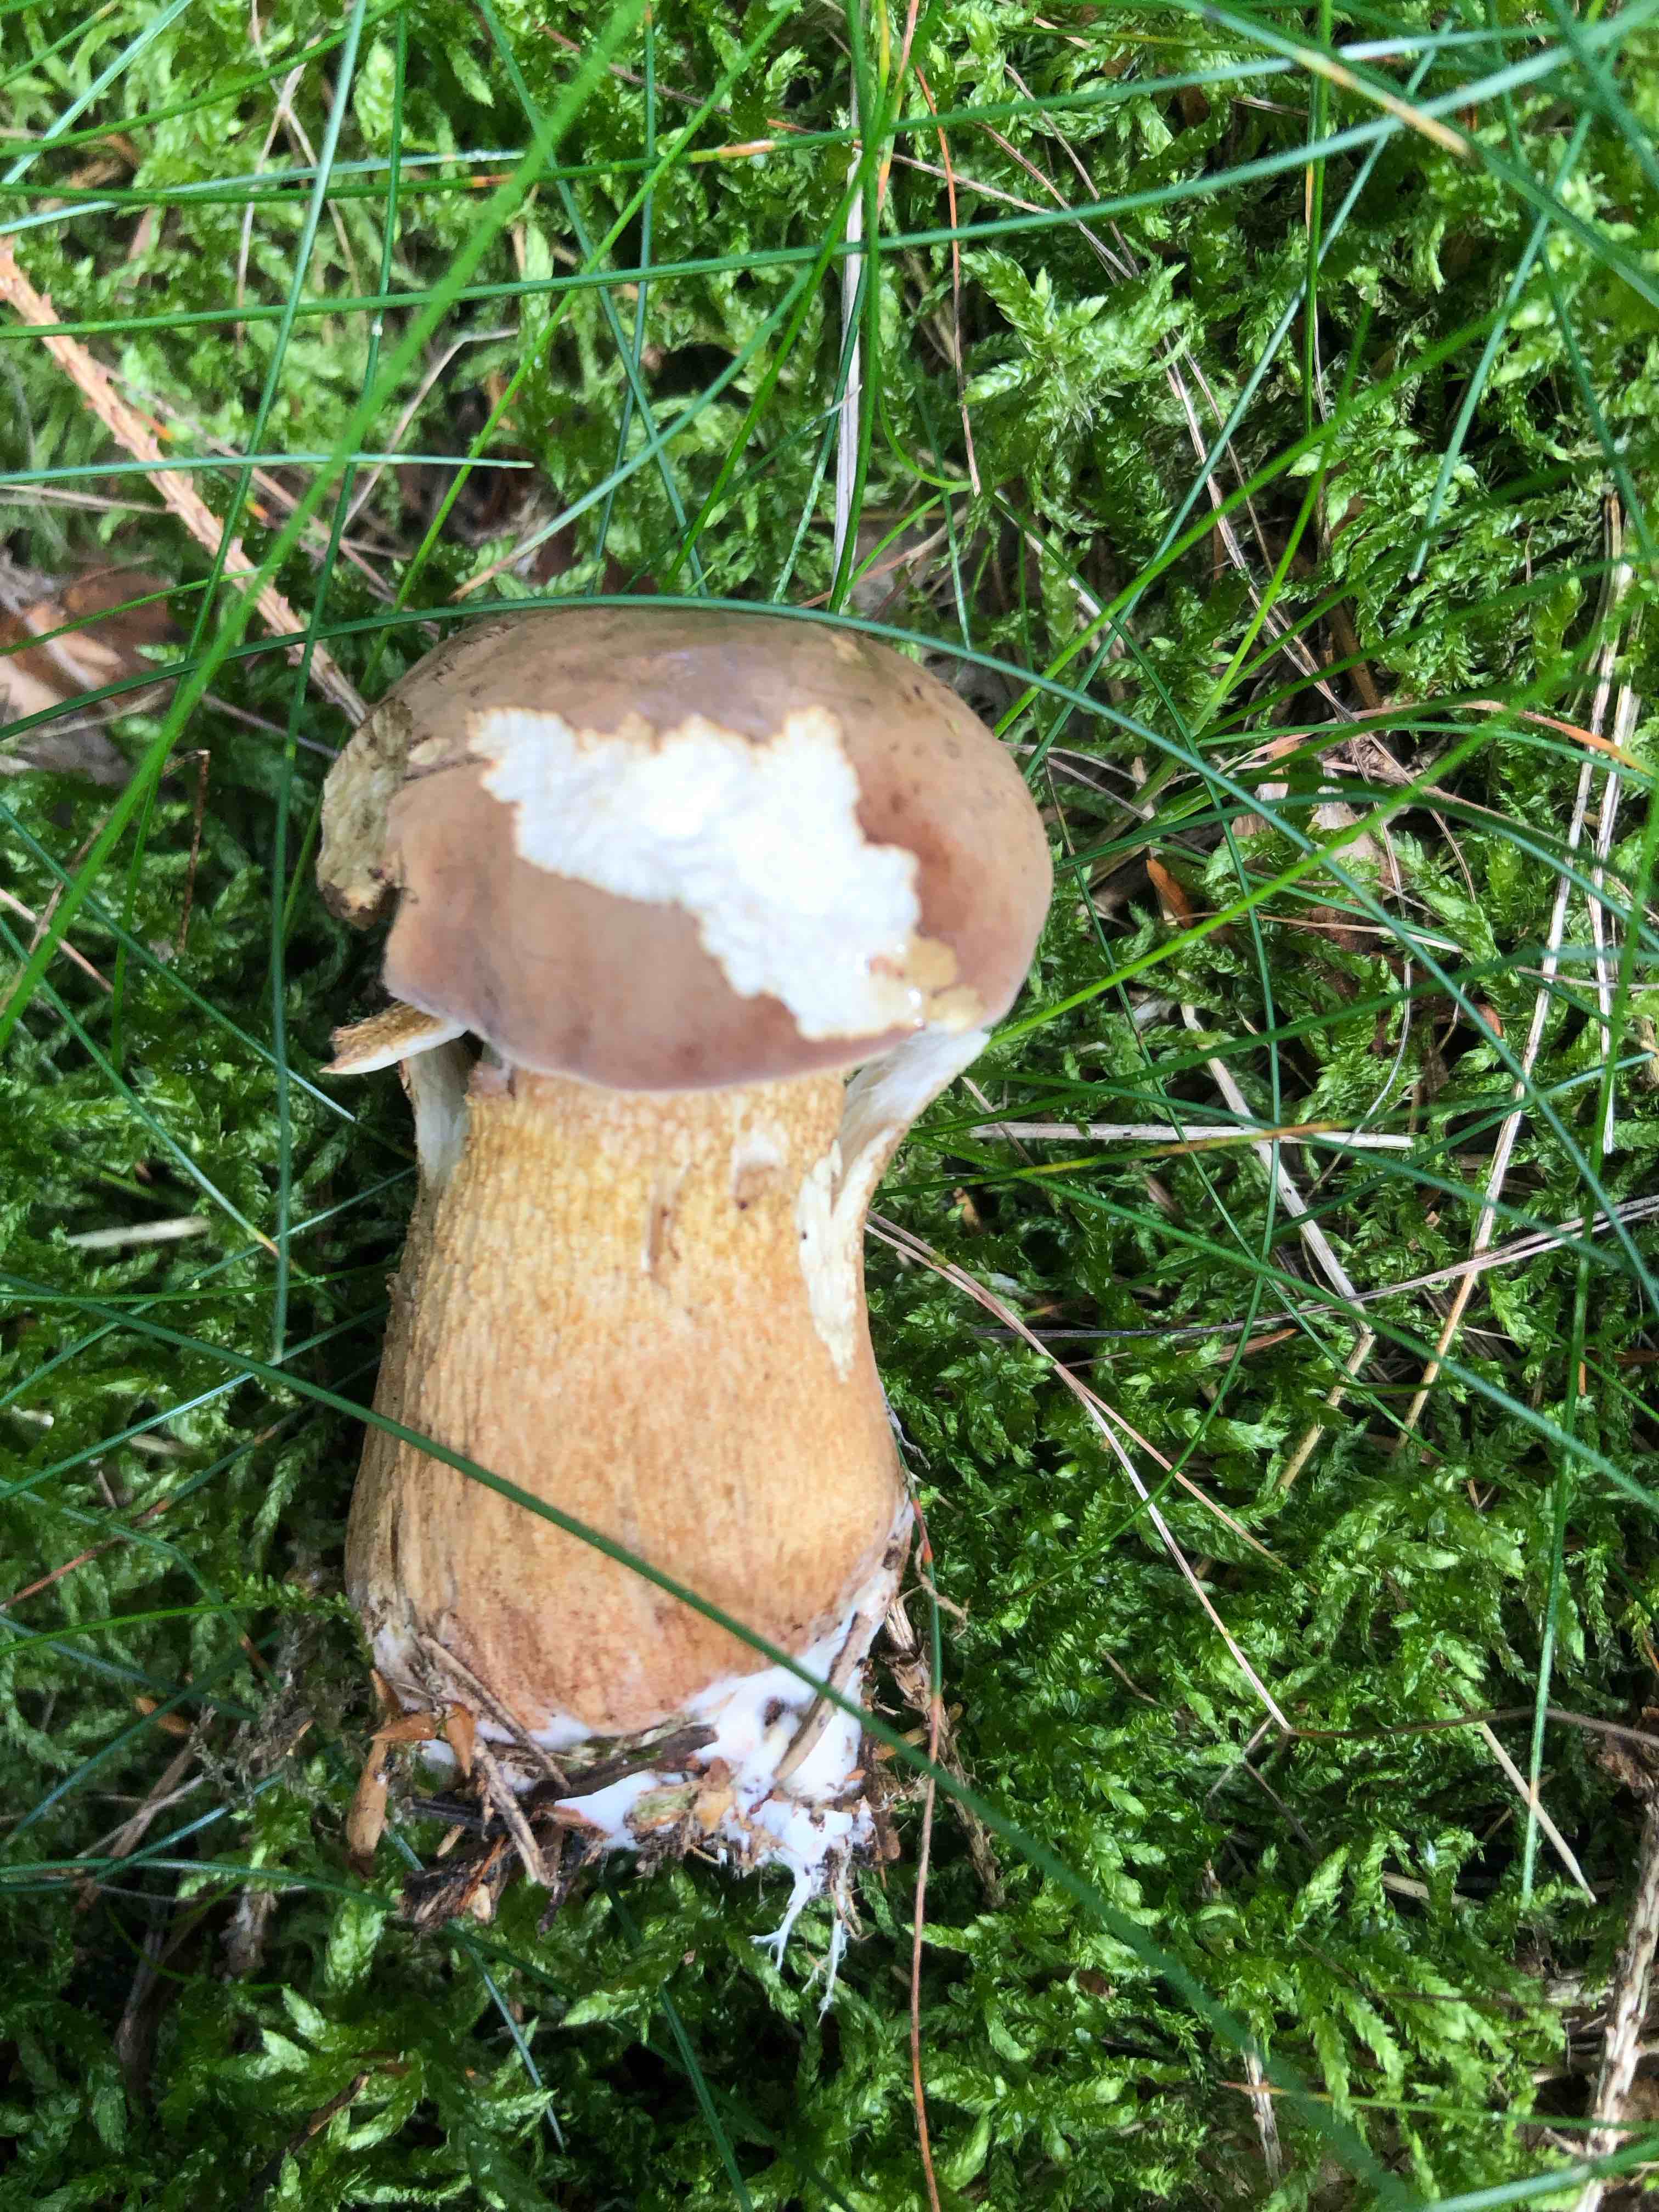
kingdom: Fungi
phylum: Basidiomycota
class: Agaricomycetes
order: Boletales
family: Boletaceae
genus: Tylopilus
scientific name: Tylopilus felleus
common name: galderørhat
